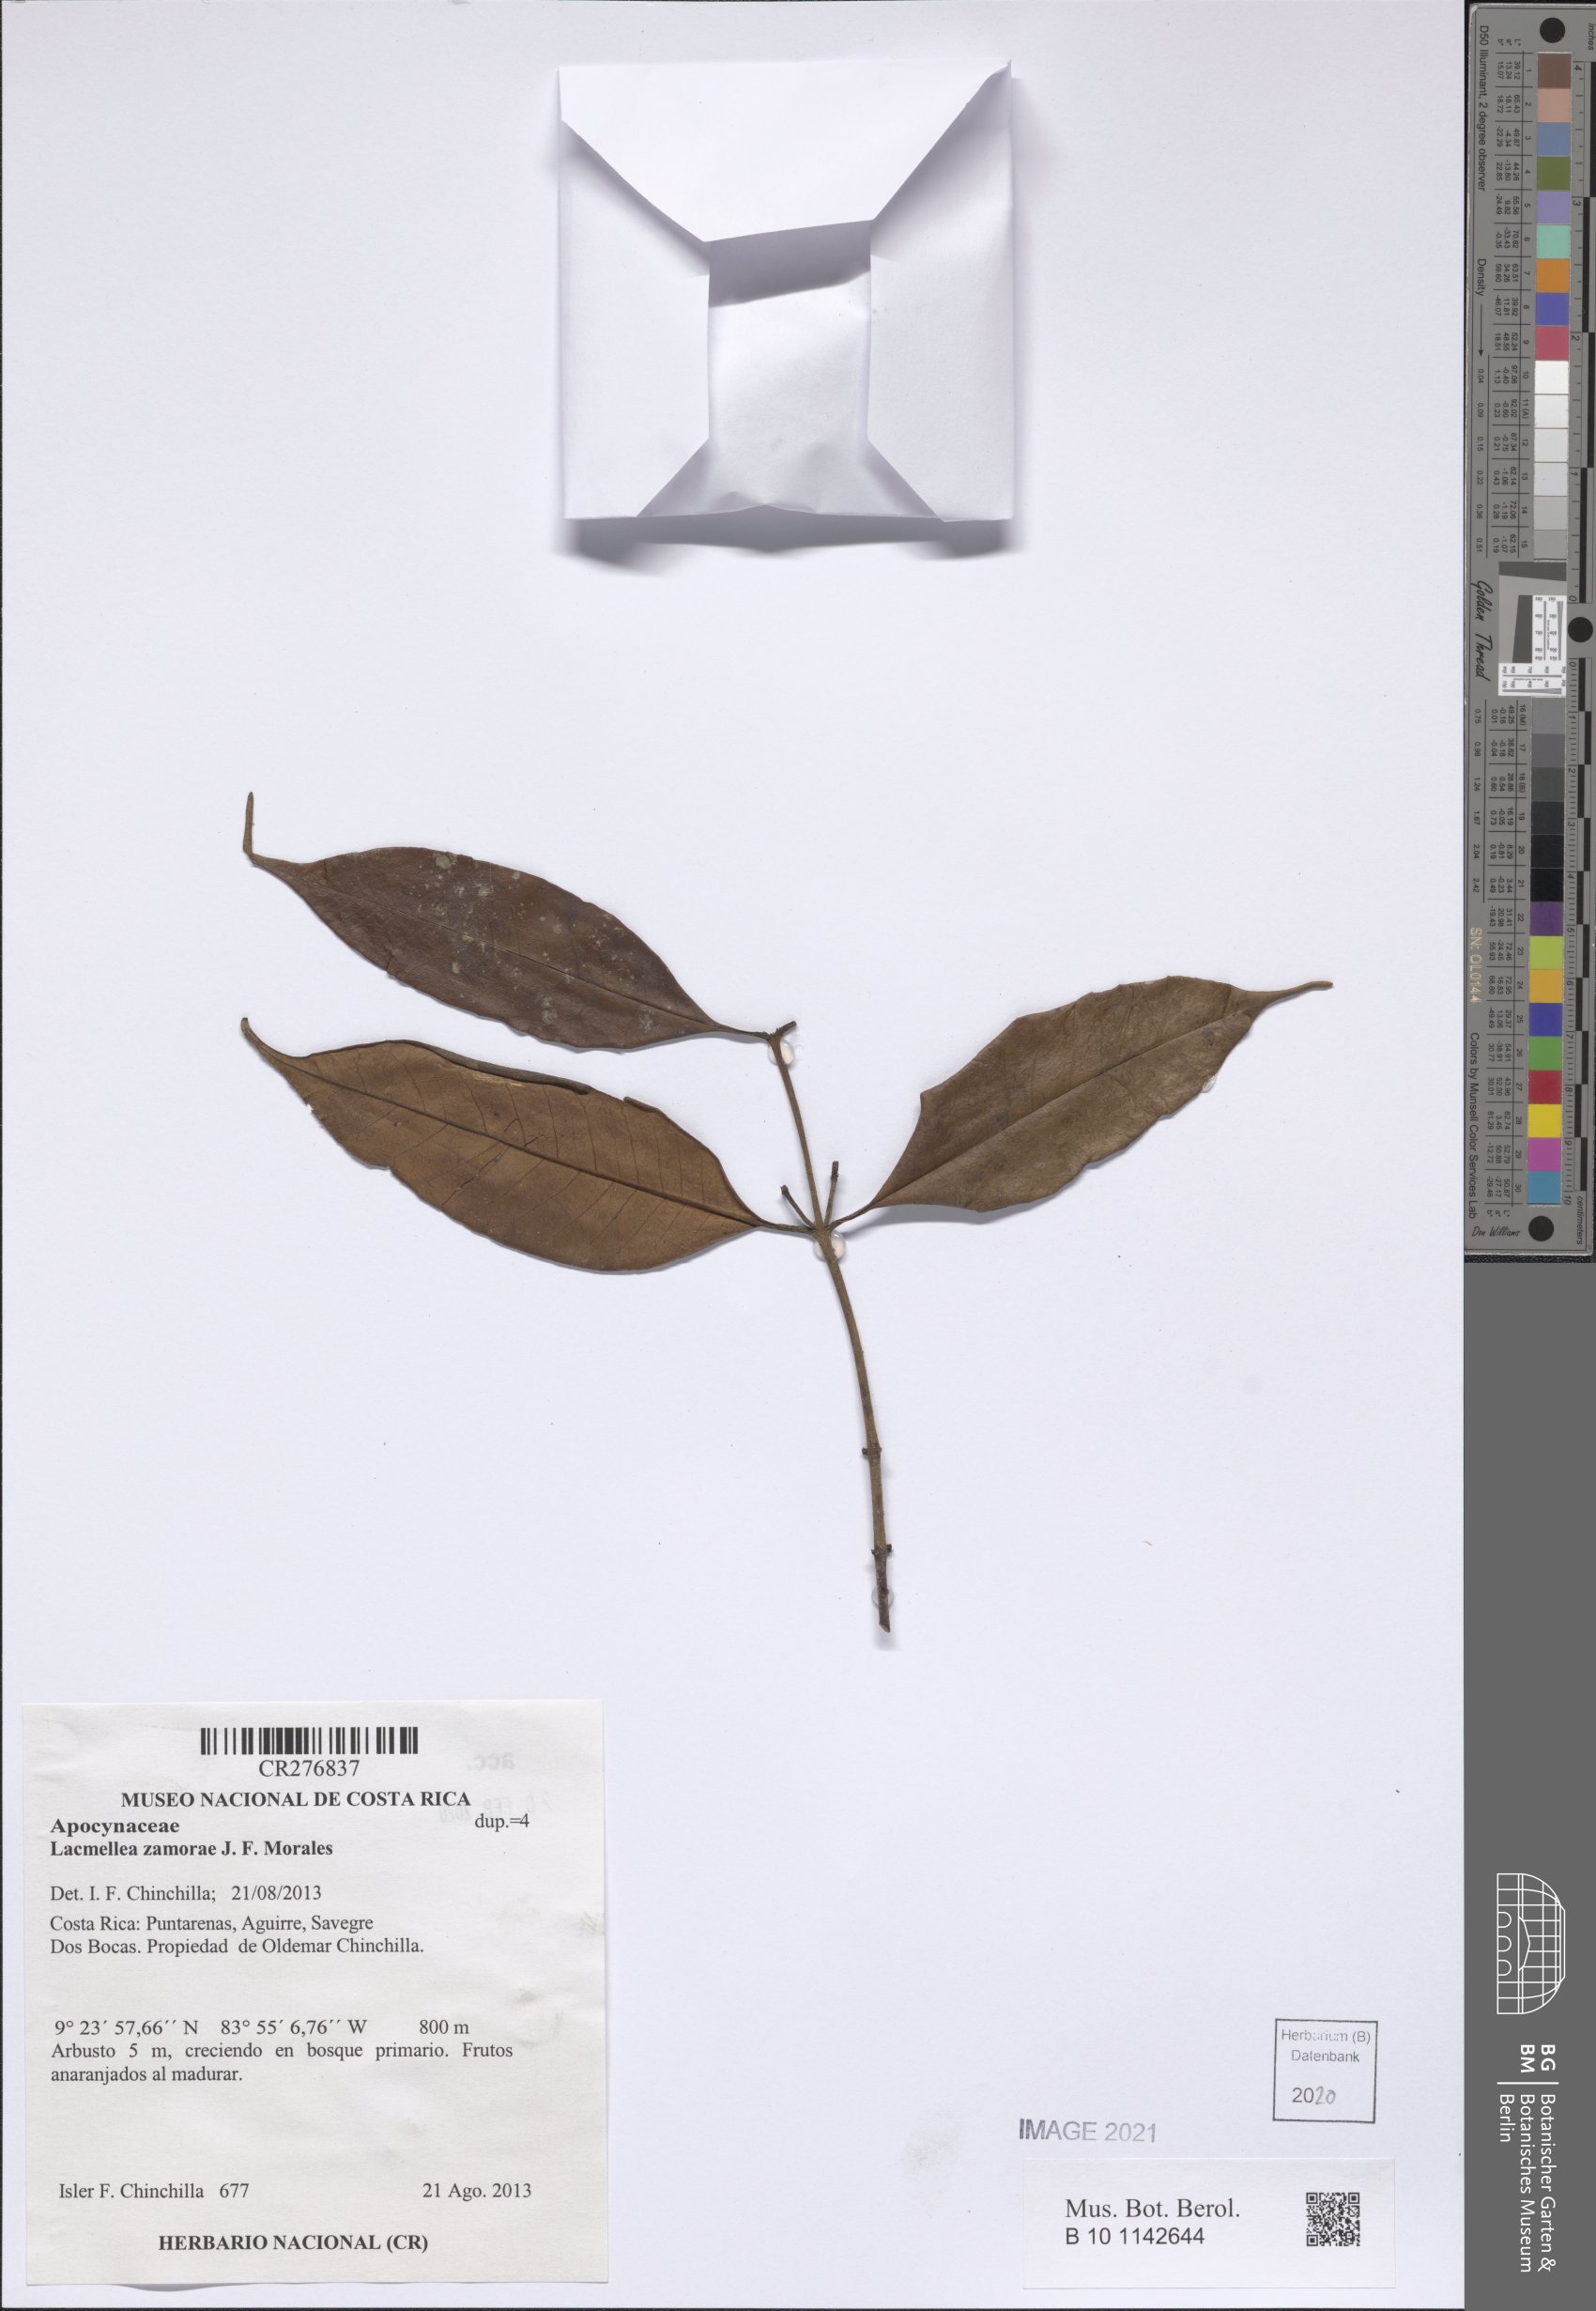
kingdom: Plantae
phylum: Tracheophyta
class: Magnoliopsida
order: Gentianales
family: Apocynaceae
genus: Lacmellea
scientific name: Lacmellea zamorae
